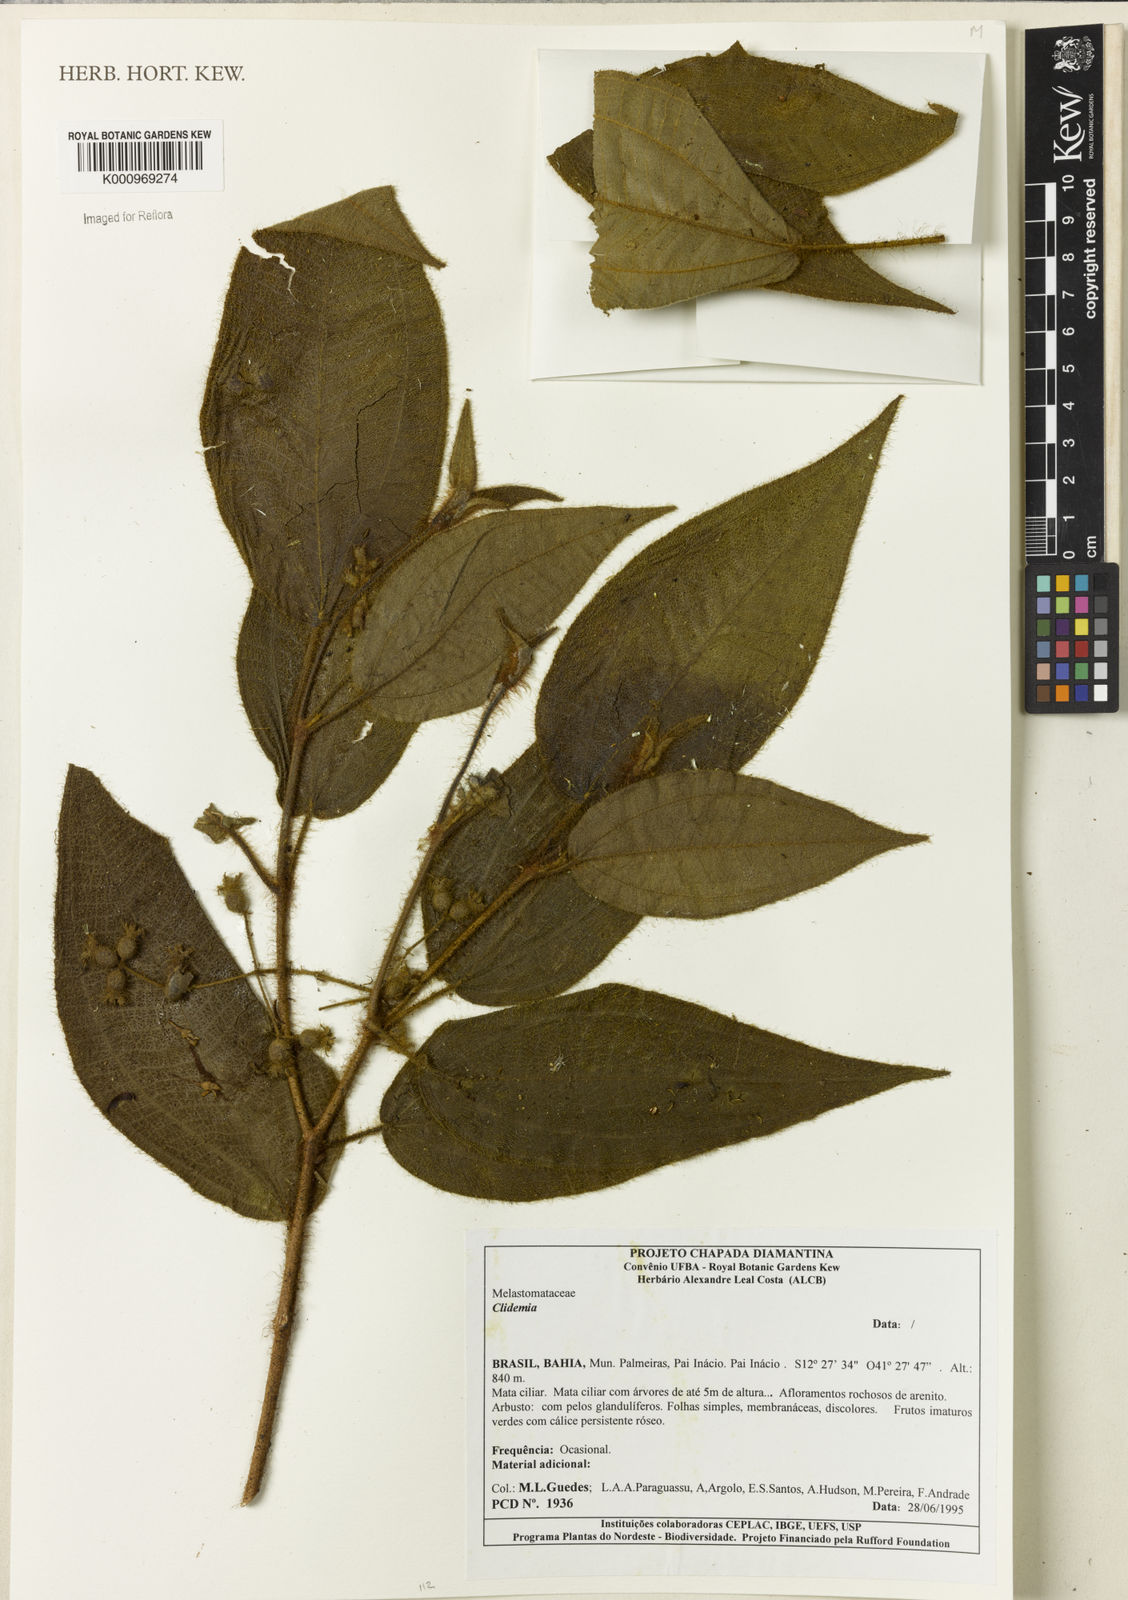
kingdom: Plantae
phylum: Tracheophyta
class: Magnoliopsida
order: Myrtales
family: Melastomataceae
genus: Miconia
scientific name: Miconia
